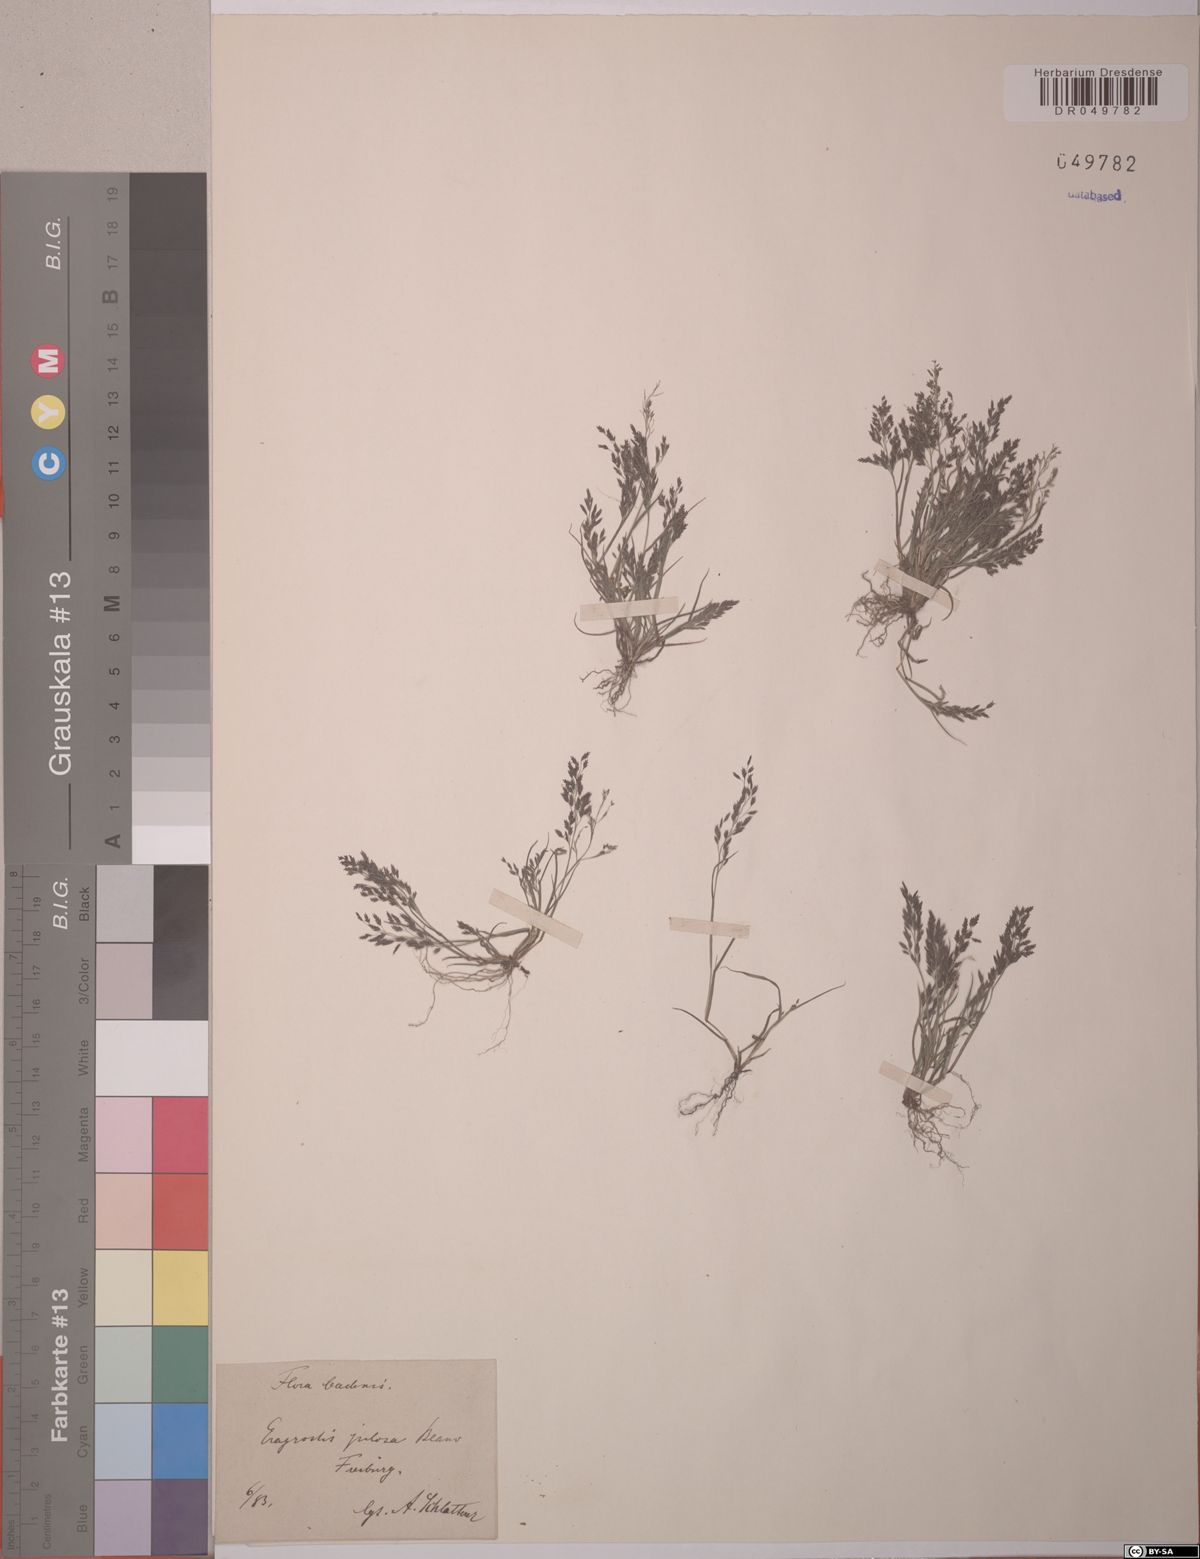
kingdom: Plantae
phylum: Tracheophyta
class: Liliopsida
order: Poales
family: Poaceae
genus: Eragrostis
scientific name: Eragrostis pilosa
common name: Indian lovegrass
